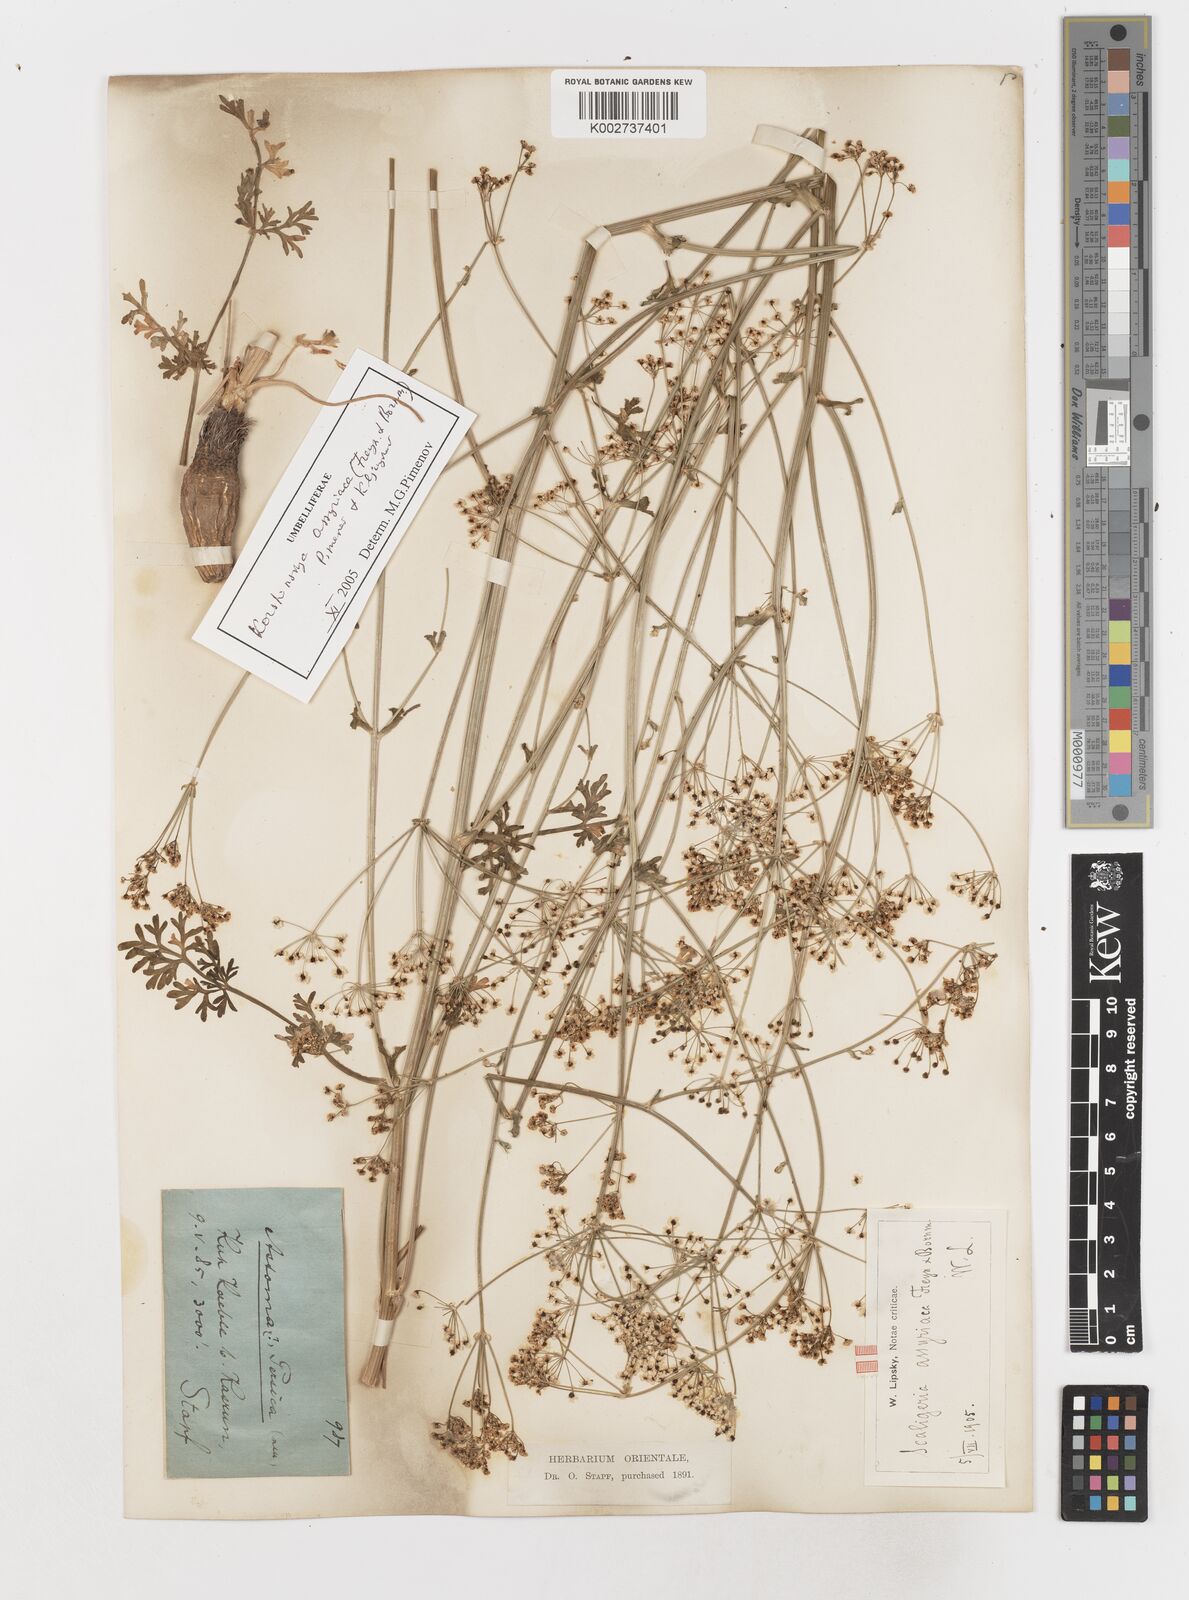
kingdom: Plantae
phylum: Tracheophyta
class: Magnoliopsida
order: Apiales
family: Apiaceae
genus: Korshinskia
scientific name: Korshinskia assyriaca
